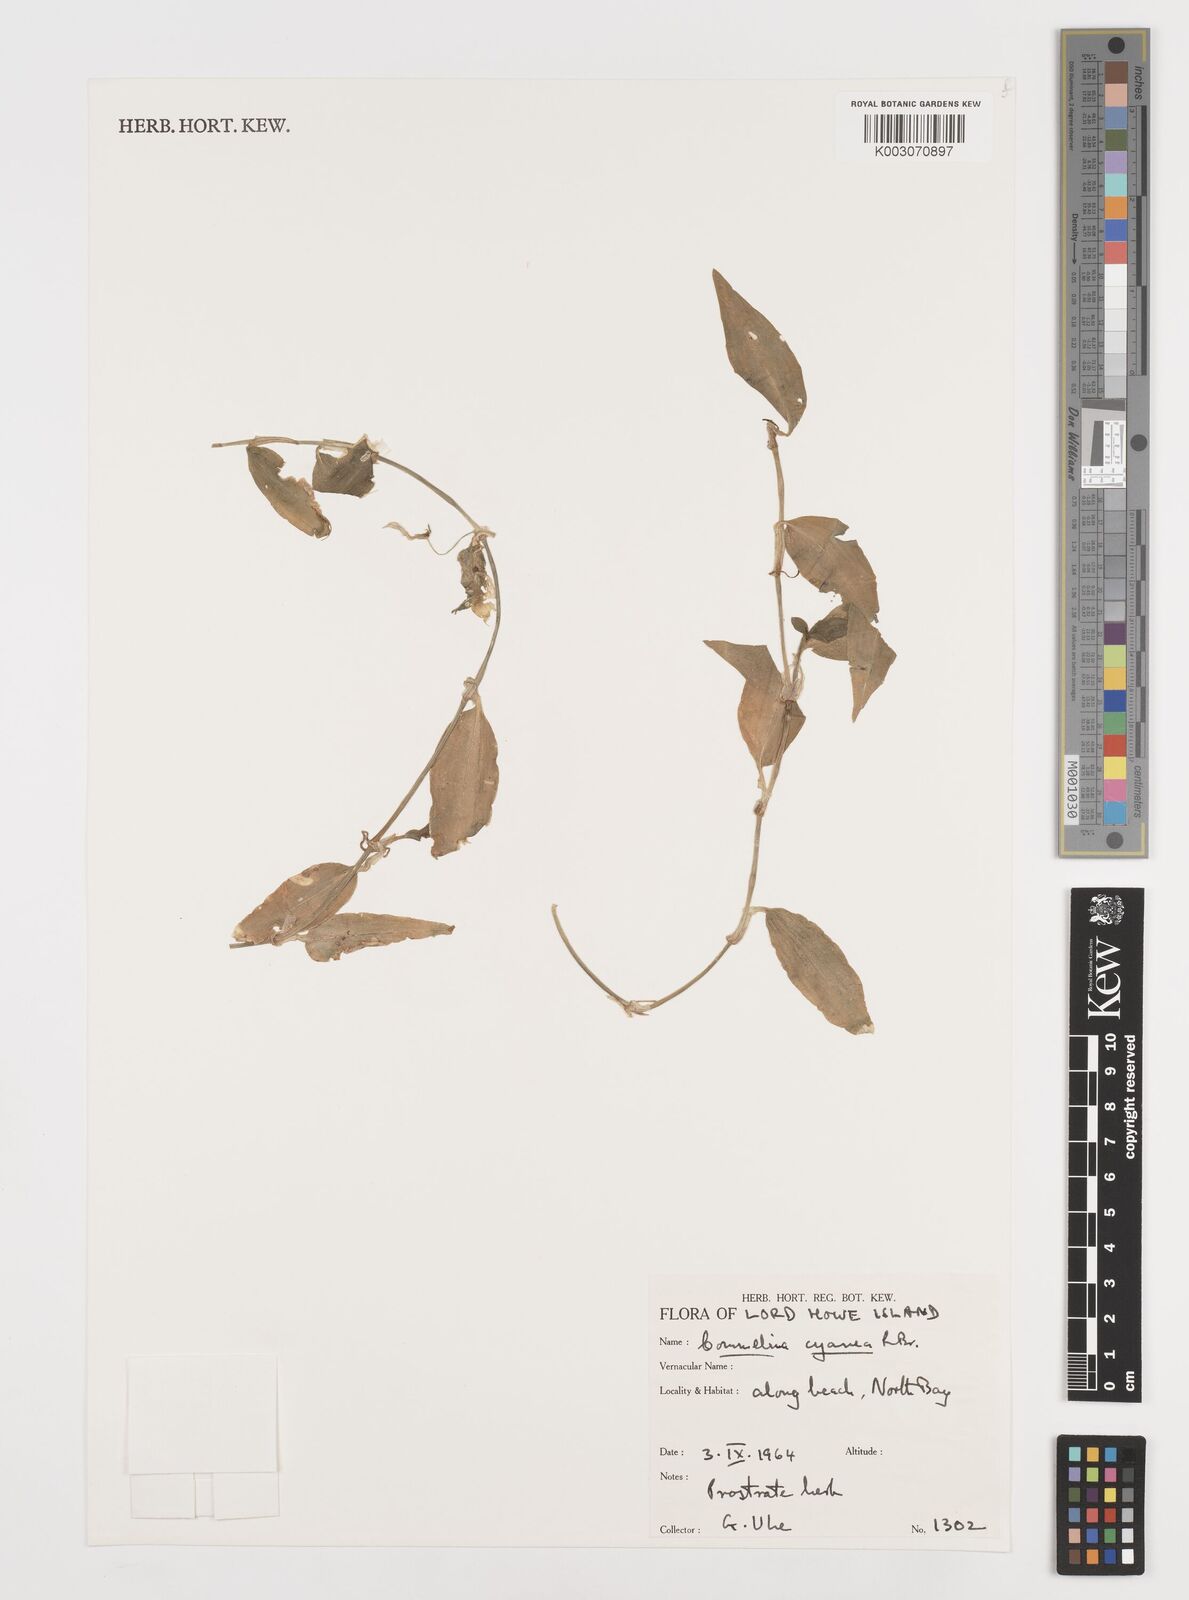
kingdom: Plantae
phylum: Tracheophyta
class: Liliopsida
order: Commelinales
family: Commelinaceae
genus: Commelina
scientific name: Commelina cyanea
